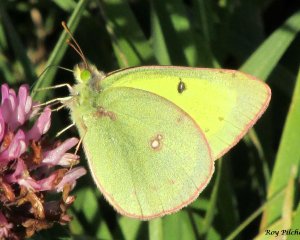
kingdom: Animalia
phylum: Arthropoda
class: Insecta
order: Lepidoptera
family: Pieridae
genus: Colias
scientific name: Colias philodice
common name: Clouded Sulphur
